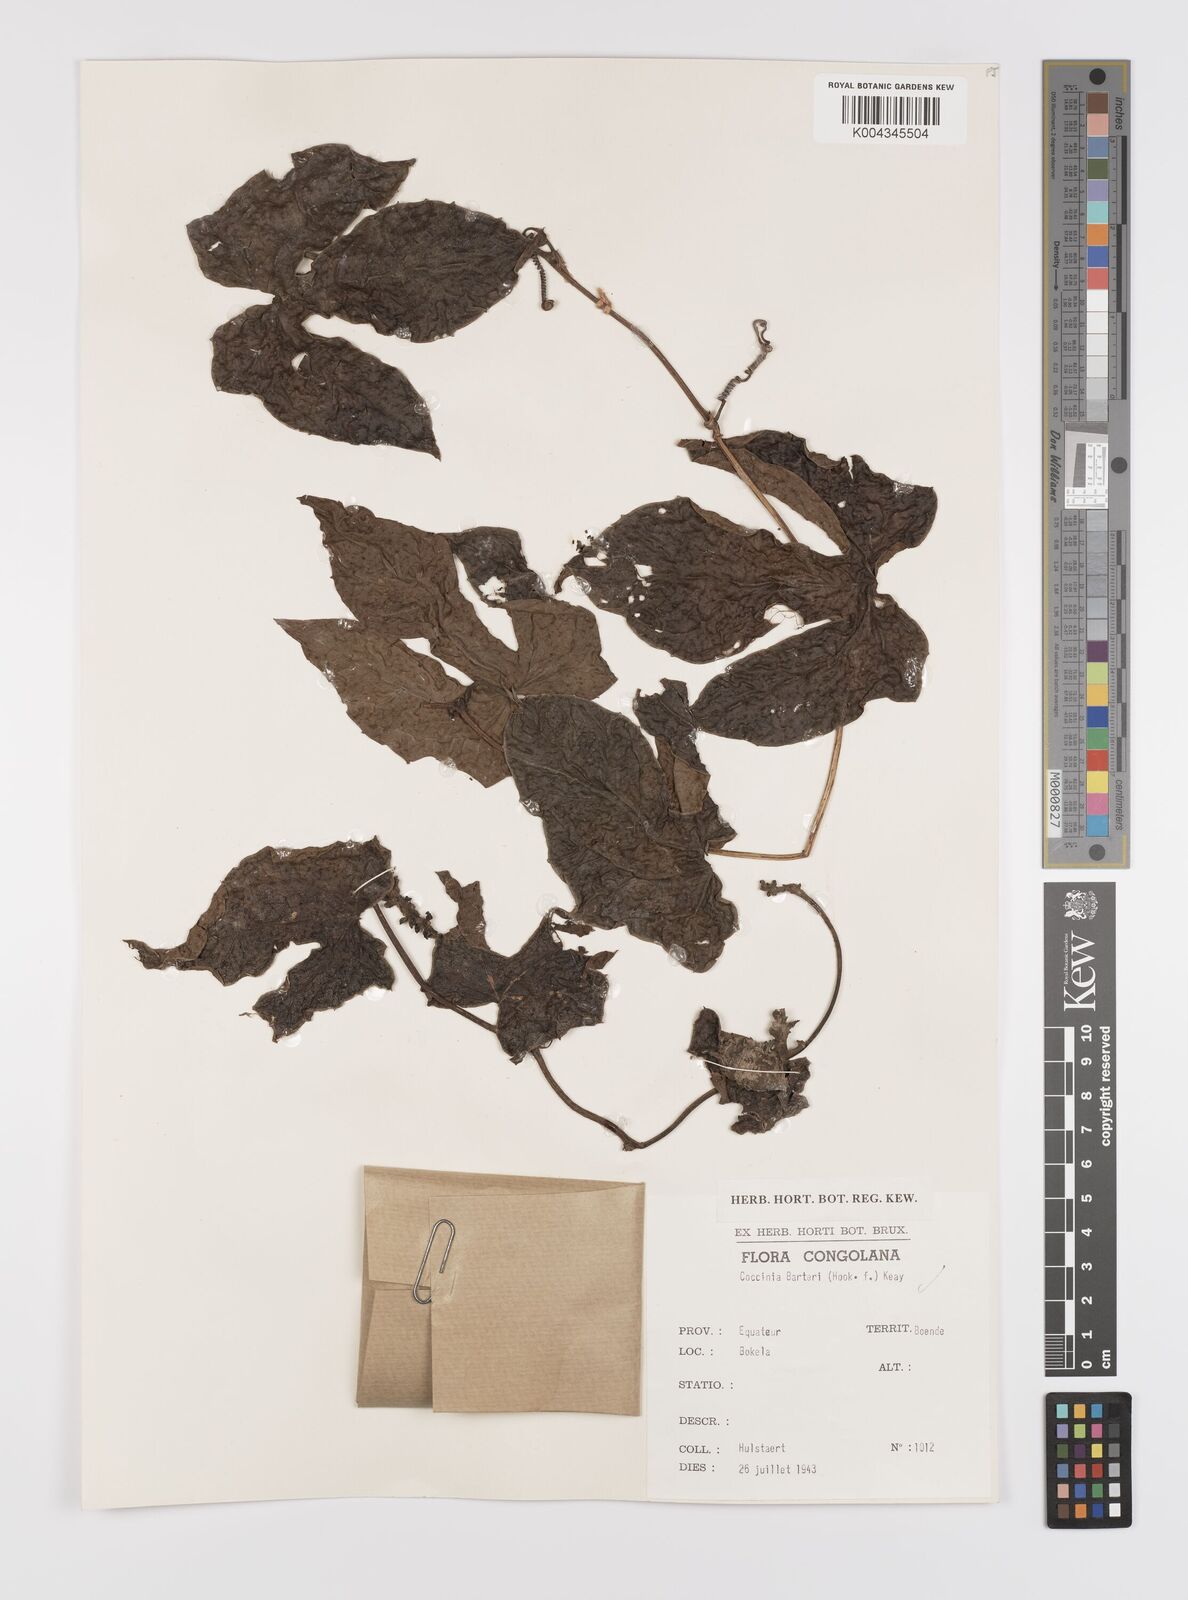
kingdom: Plantae
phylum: Tracheophyta
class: Magnoliopsida
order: Cucurbitales
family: Cucurbitaceae
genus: Coccinia
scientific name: Coccinia barteri
